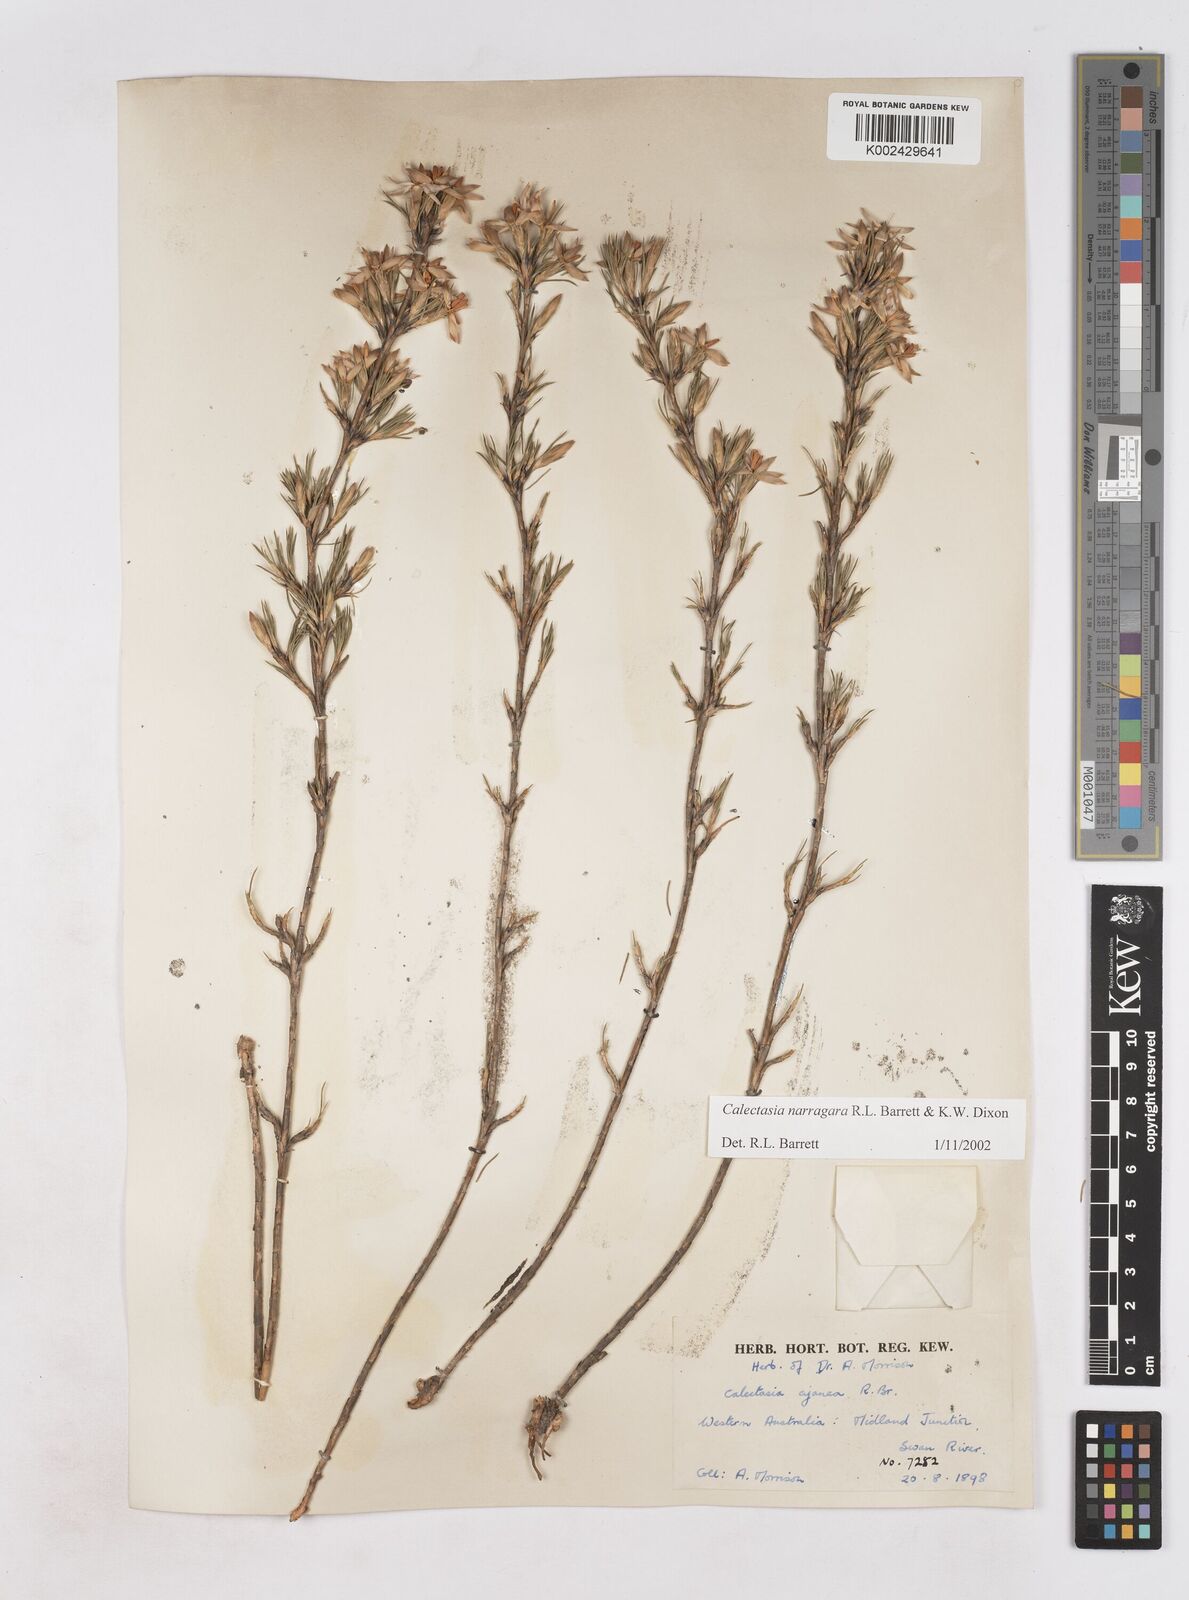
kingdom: Plantae
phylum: Tracheophyta
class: Liliopsida
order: Arecales
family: Dasypogonaceae
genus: Calectasia
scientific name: Calectasia narragara
